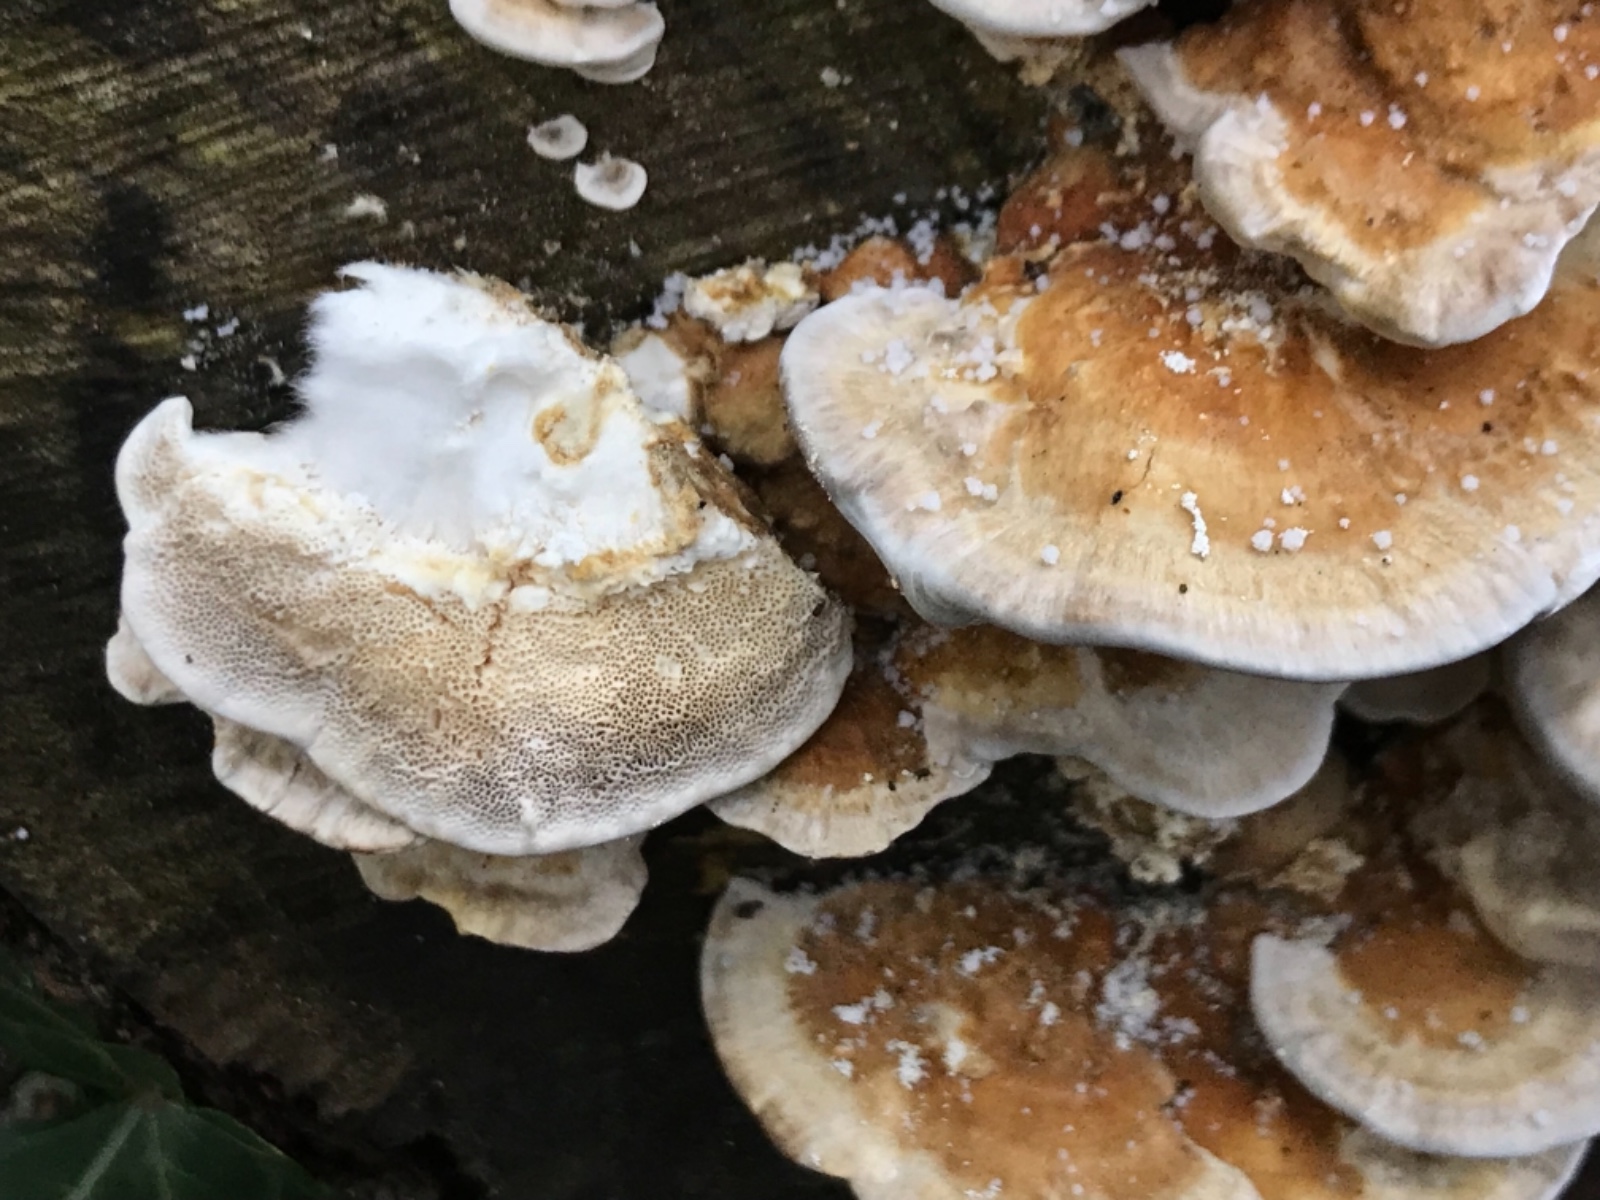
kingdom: Fungi
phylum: Basidiomycota
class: Agaricomycetes
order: Polyporales
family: Polyporaceae
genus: Trametes
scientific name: Trametes ochracea
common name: bæltet læderporesvamp
